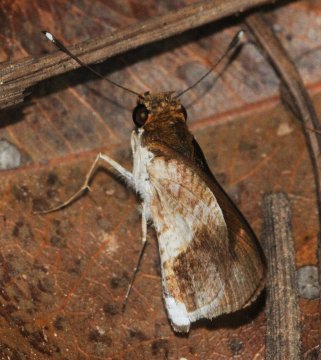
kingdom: Animalia
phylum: Arthropoda
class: Insecta
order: Lepidoptera
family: Hesperiidae
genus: Acleros
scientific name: Acleros mackenii
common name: Macken's Dart
